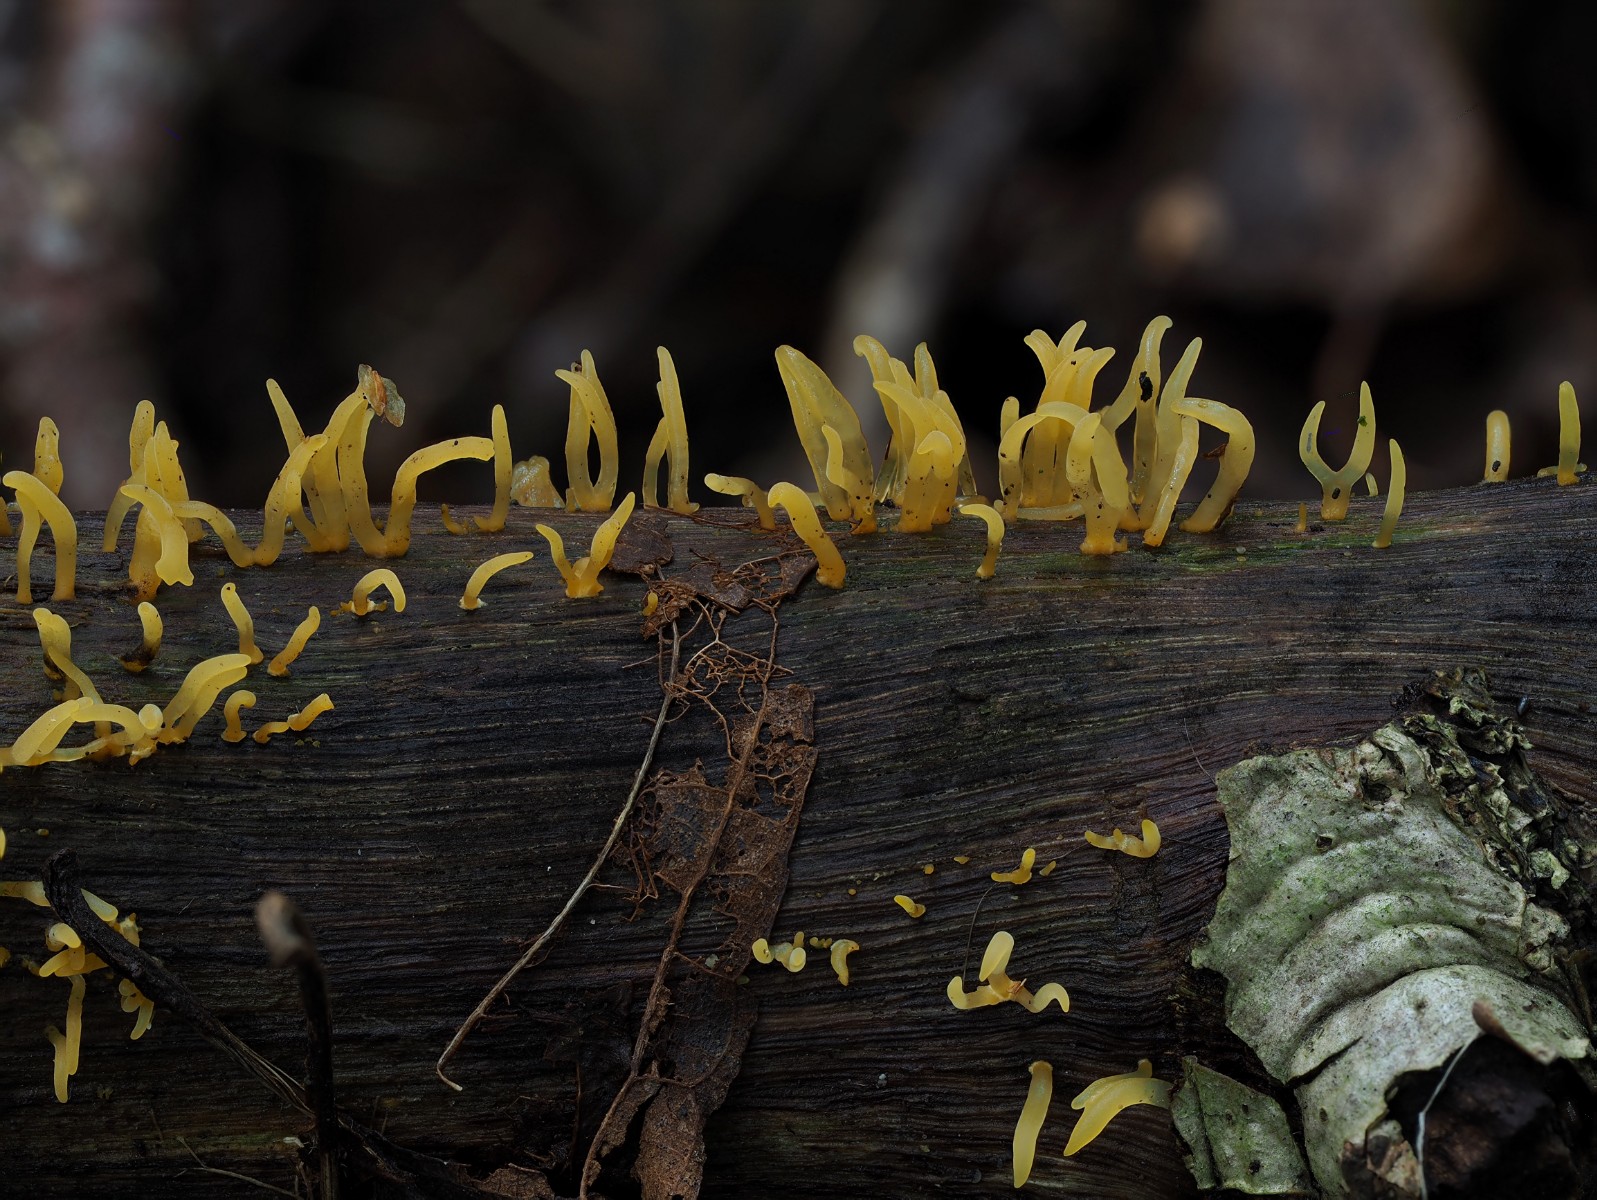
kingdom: Fungi
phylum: Basidiomycota
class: Dacrymycetes
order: Dacrymycetales
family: Dacrymycetaceae
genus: Calocera
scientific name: Calocera cornea
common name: liden guldgaffel
